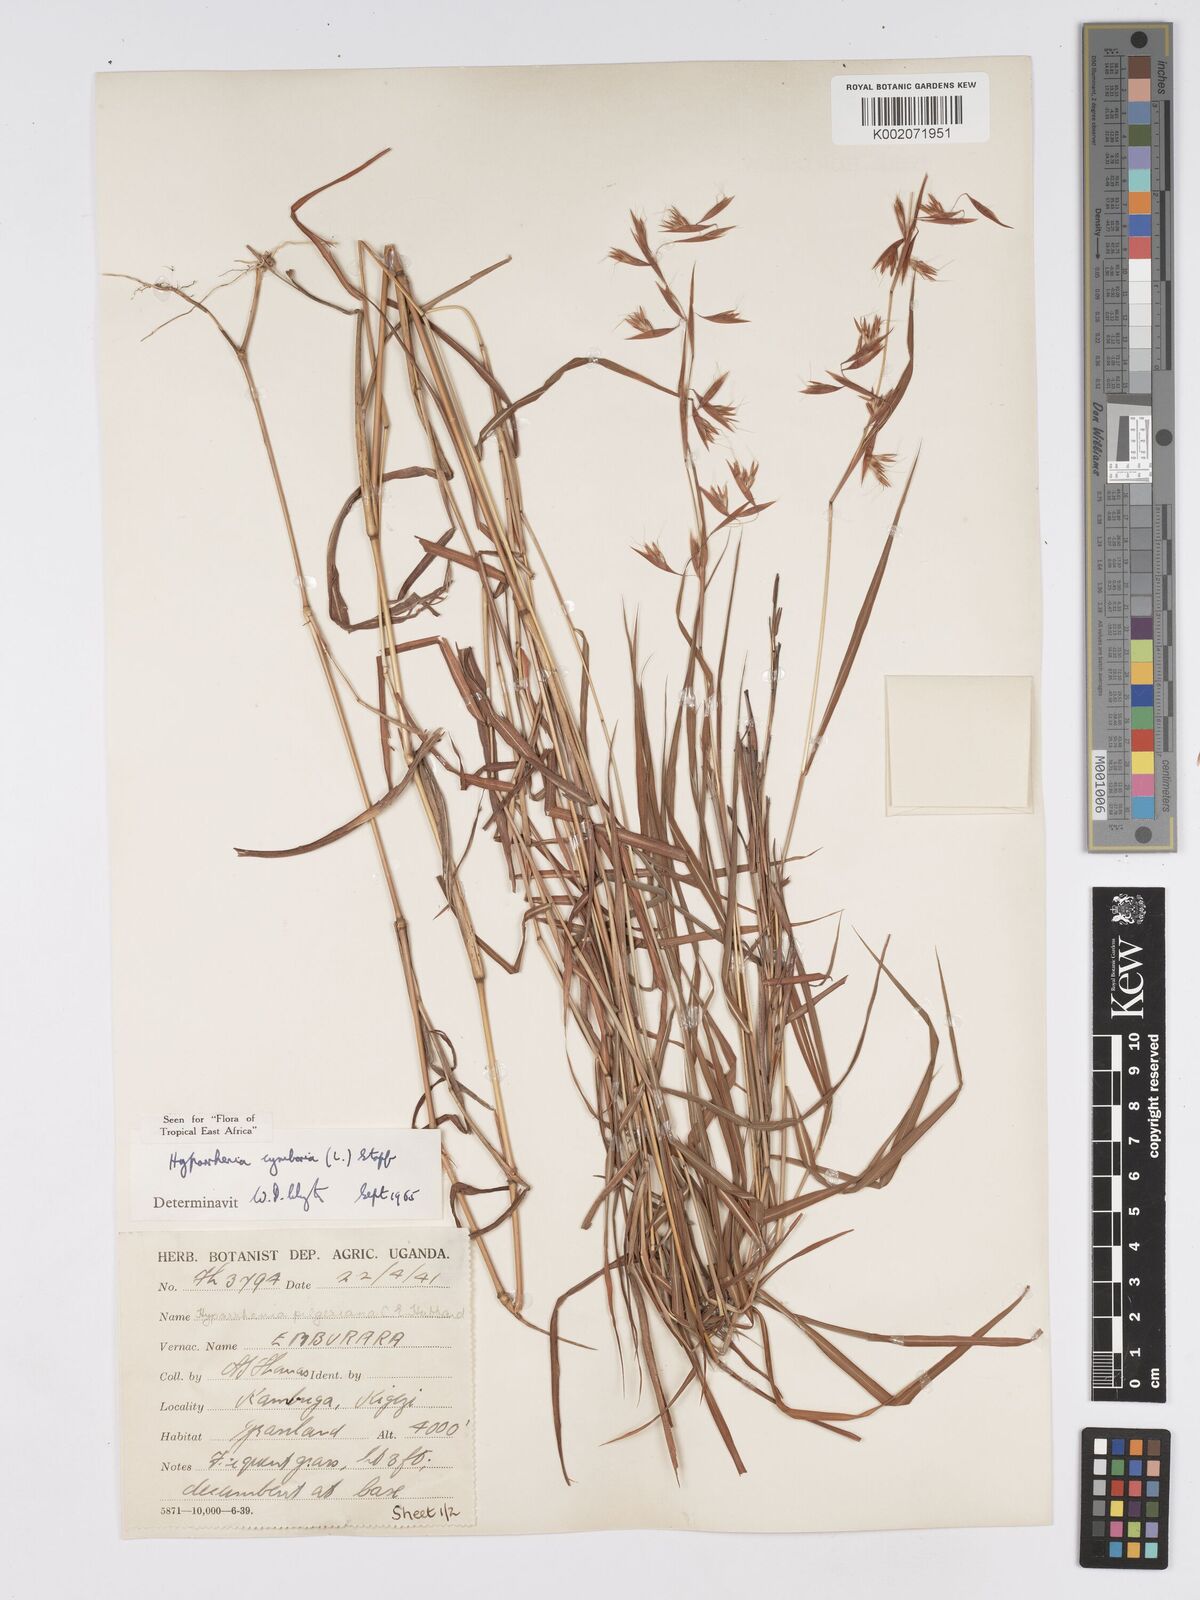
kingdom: Plantae
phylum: Tracheophyta
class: Liliopsida
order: Poales
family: Poaceae
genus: Hyparrhenia
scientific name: Hyparrhenia cymbaria
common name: Boat thatching grass
